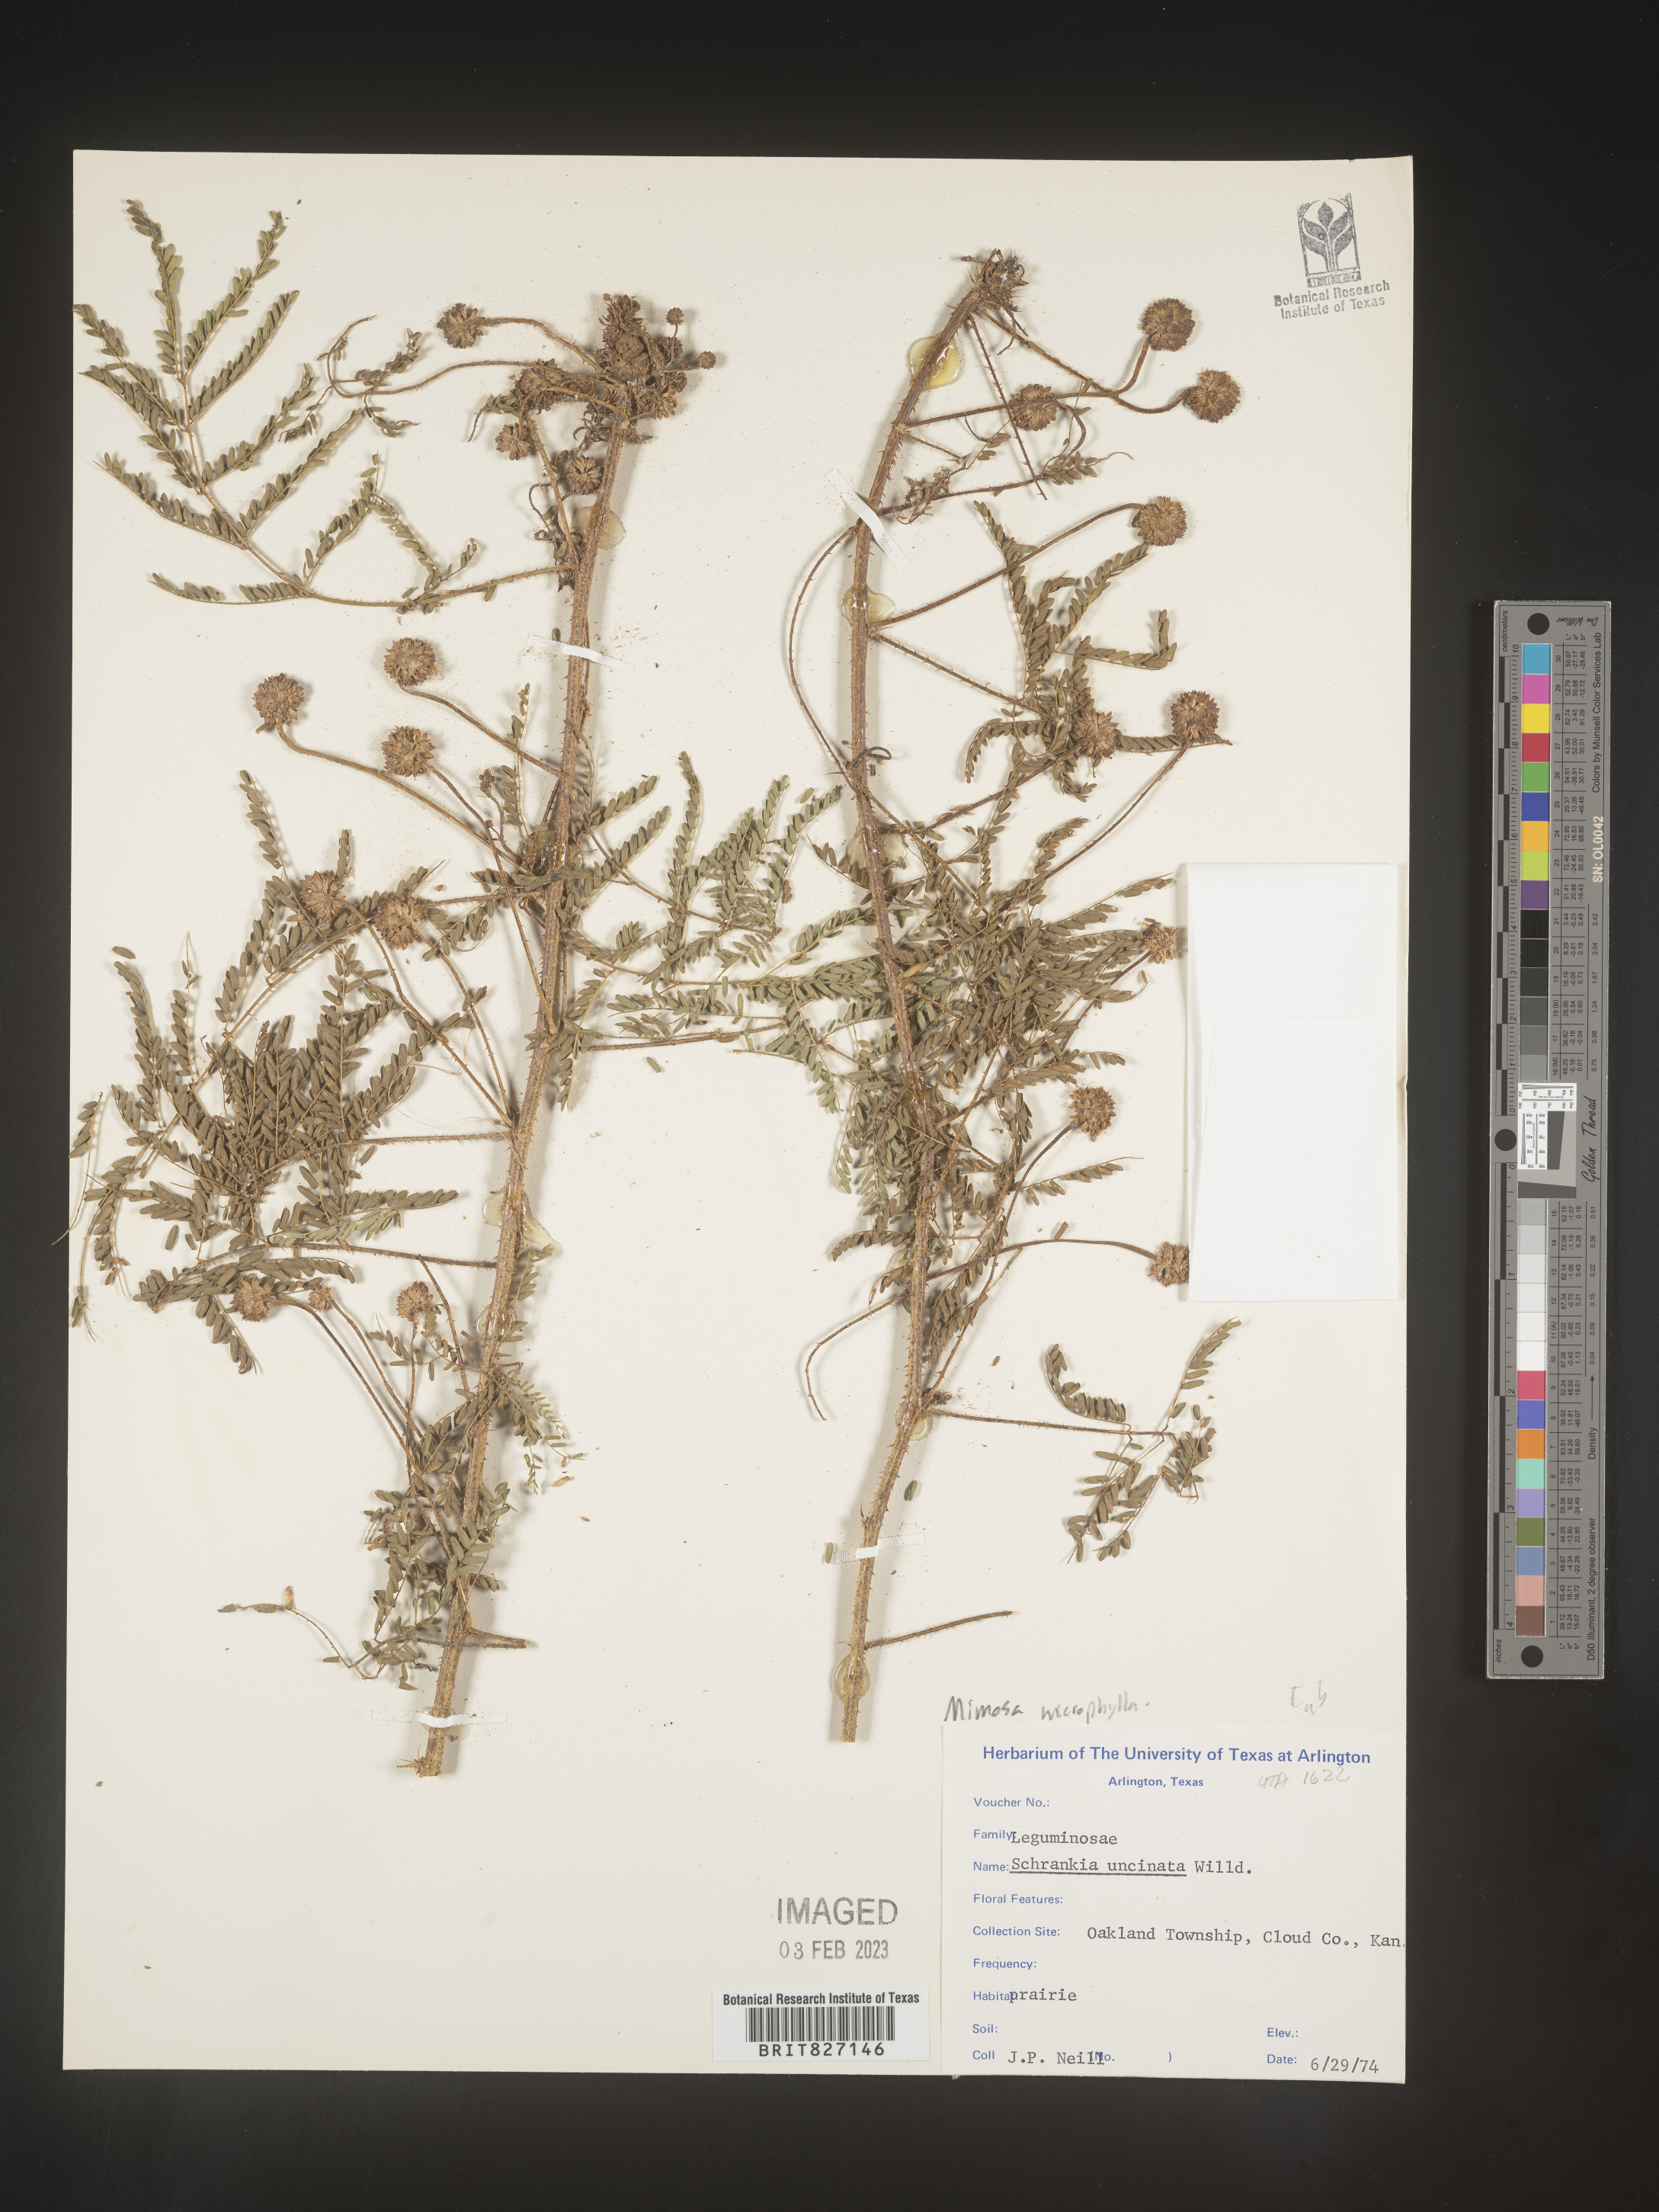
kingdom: Plantae
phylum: Tracheophyta
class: Magnoliopsida
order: Fabales
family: Fabaceae
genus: Mimosa
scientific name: Mimosa quadrivalvis
